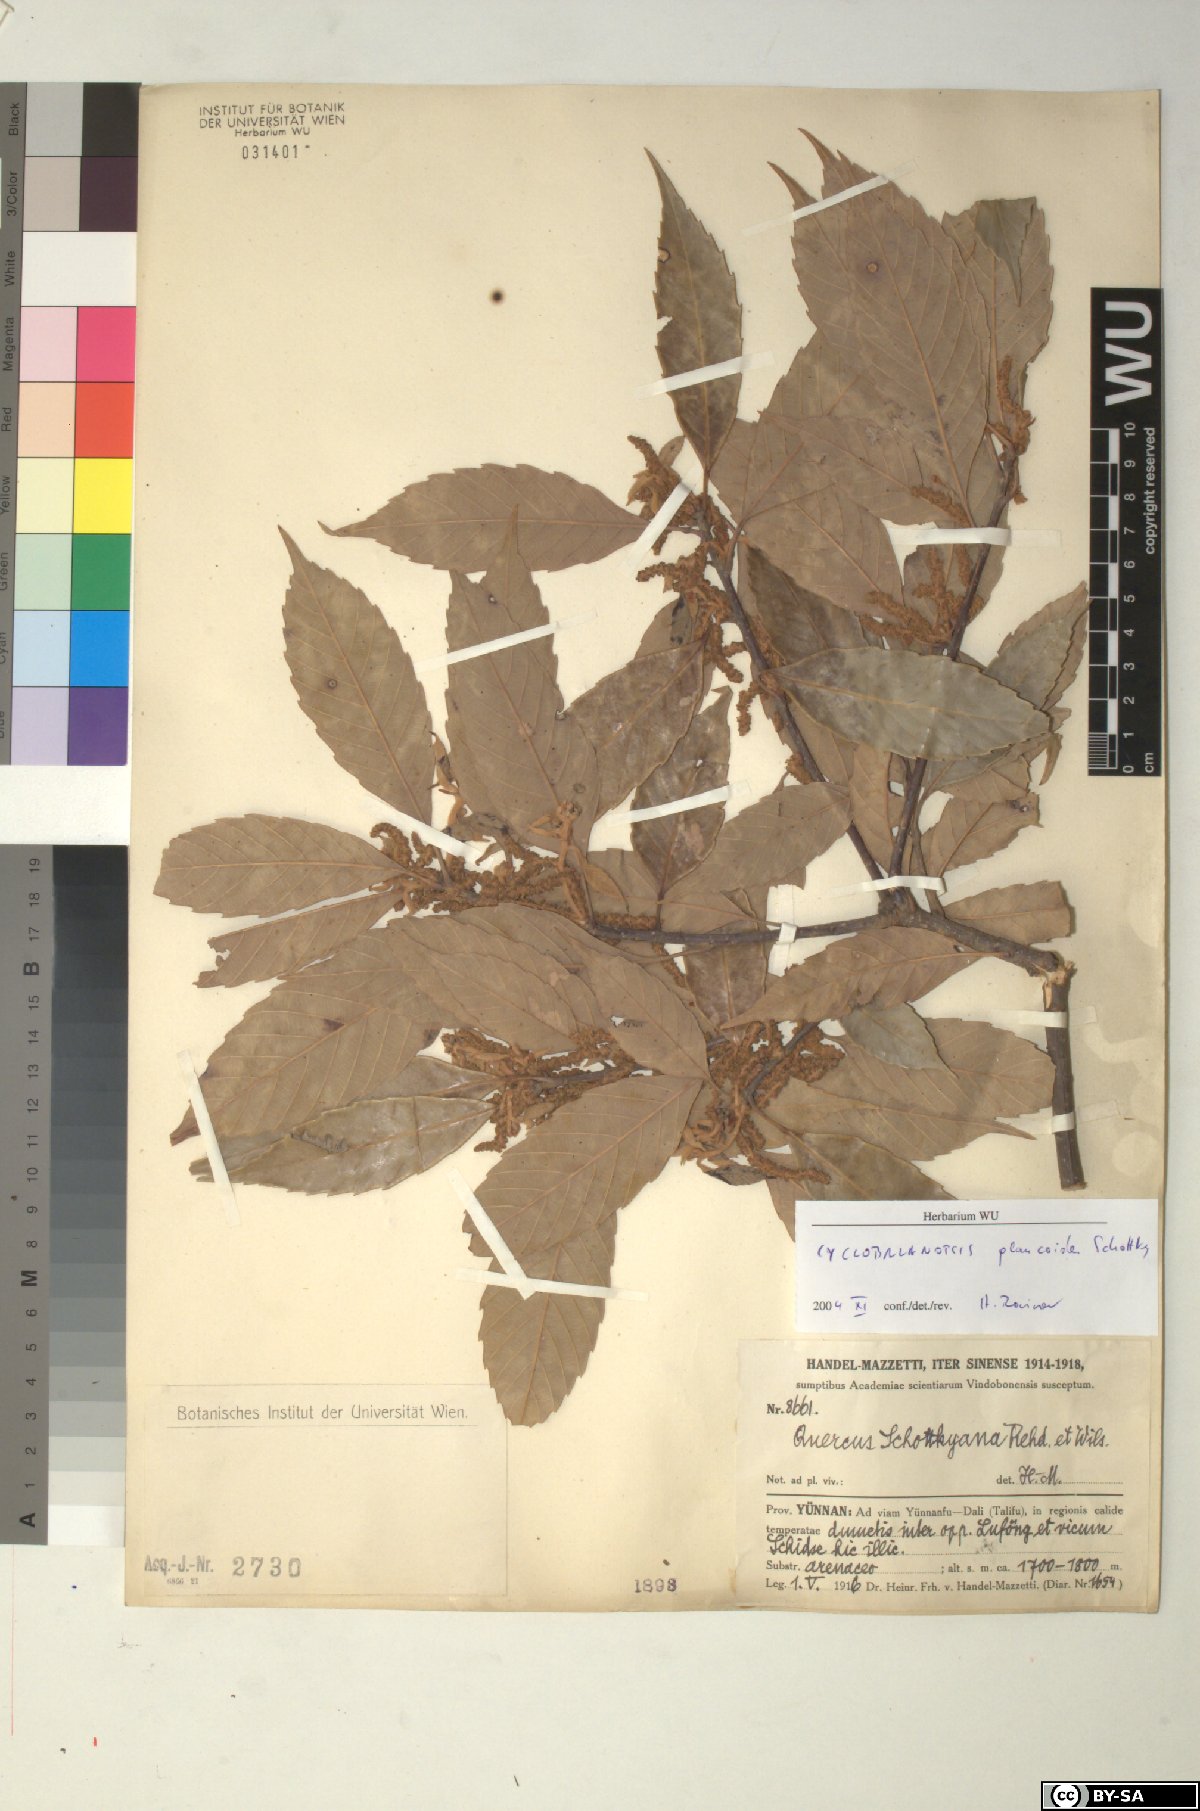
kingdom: Plantae
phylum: Tracheophyta
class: Magnoliopsida
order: Fagales
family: Fagaceae
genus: Quercus
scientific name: Quercus schottkyana
